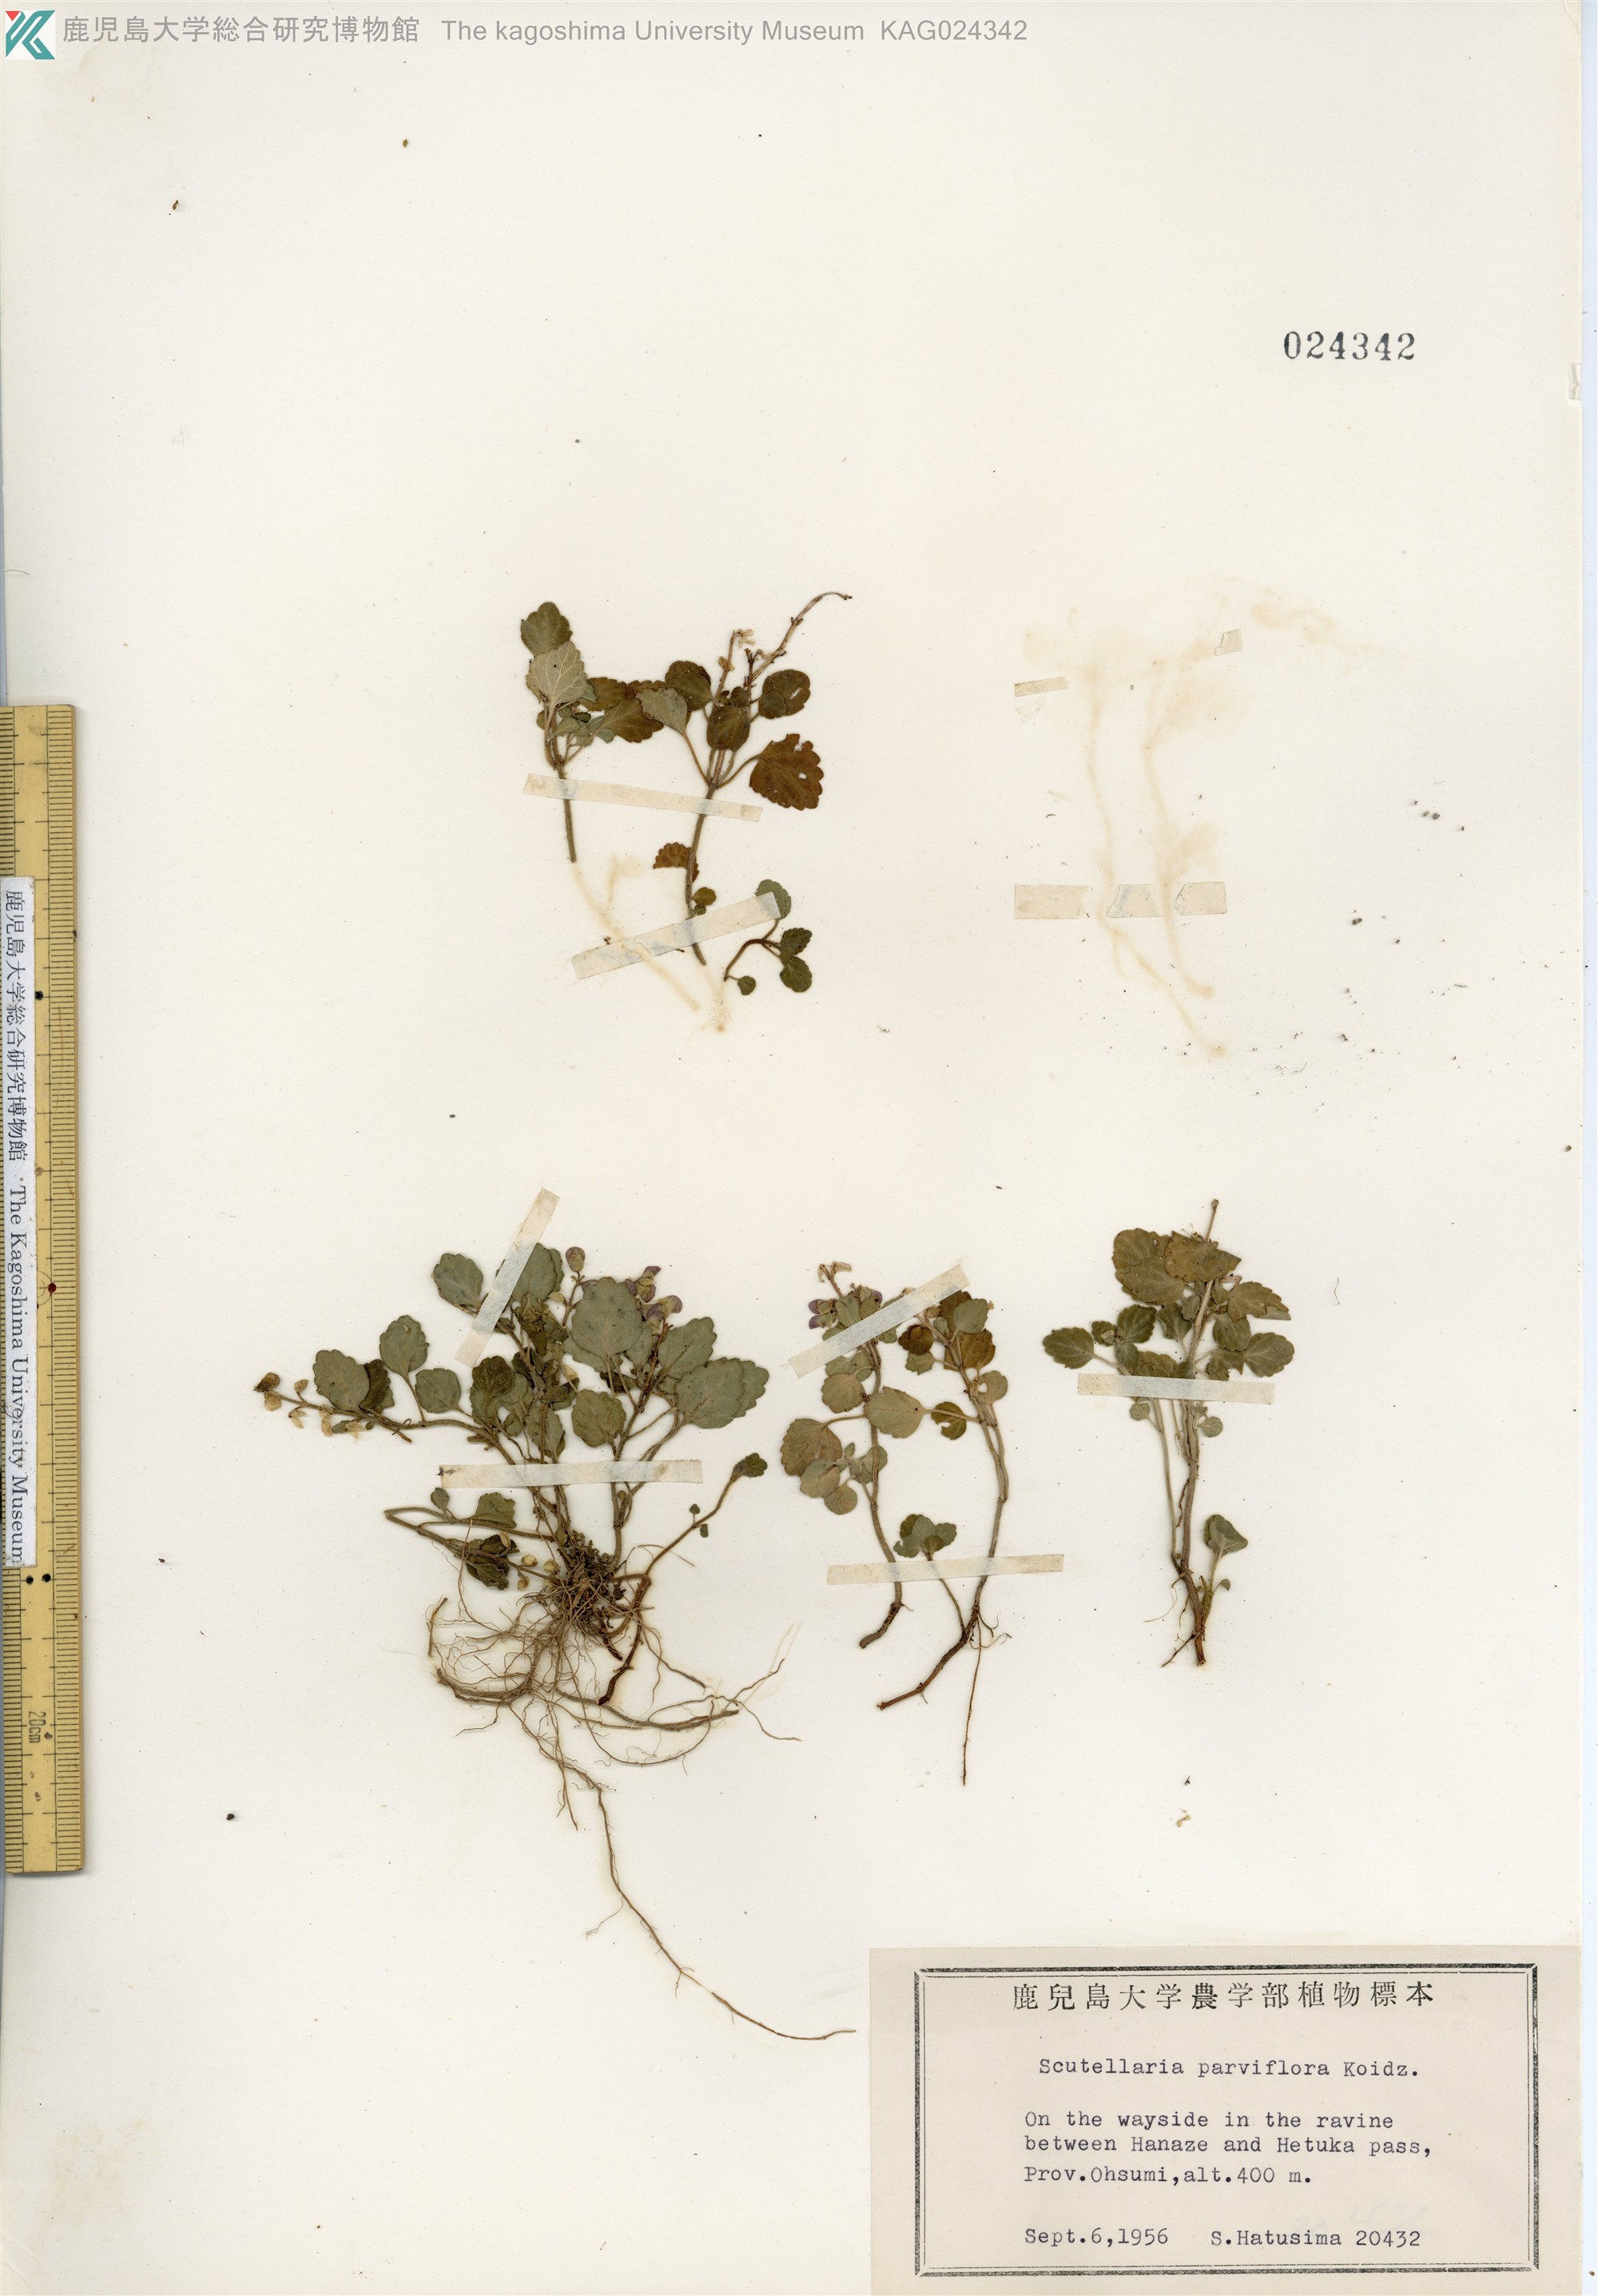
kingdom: Plantae
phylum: Tracheophyta
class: Magnoliopsida
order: Lamiales
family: Lamiaceae
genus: Scutellaria
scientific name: Scutellaria indica
